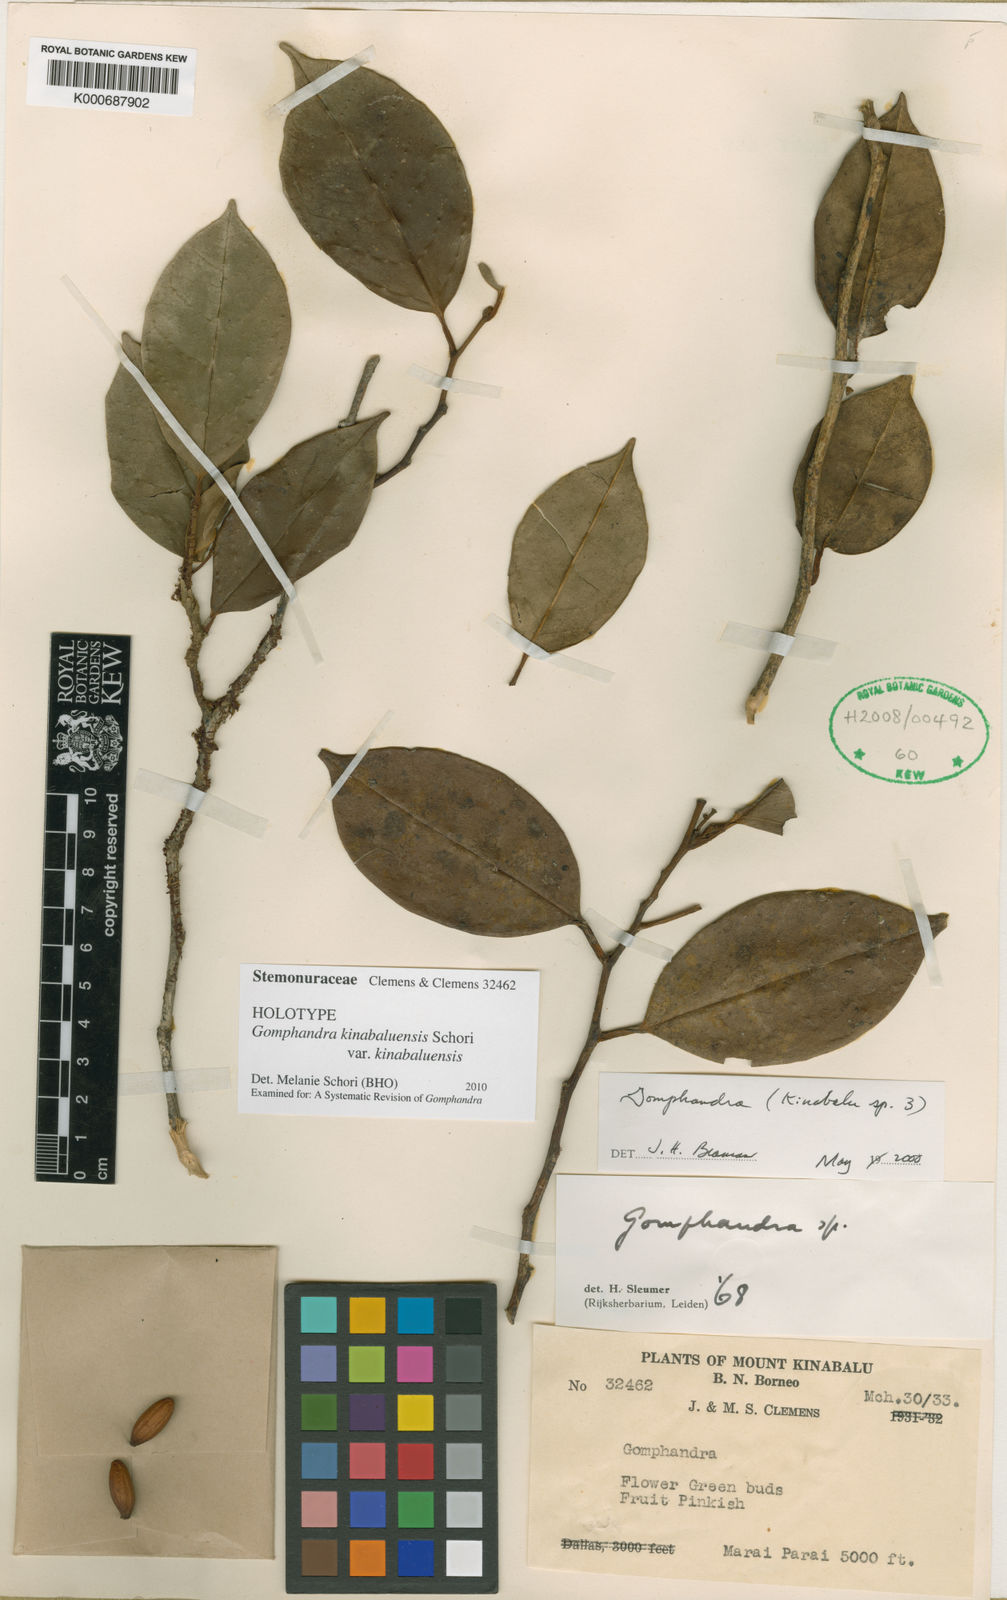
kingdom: Plantae
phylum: Tracheophyta
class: Magnoliopsida
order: Cardiopteridales
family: Stemonuraceae
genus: Gomphandra
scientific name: Gomphandra
